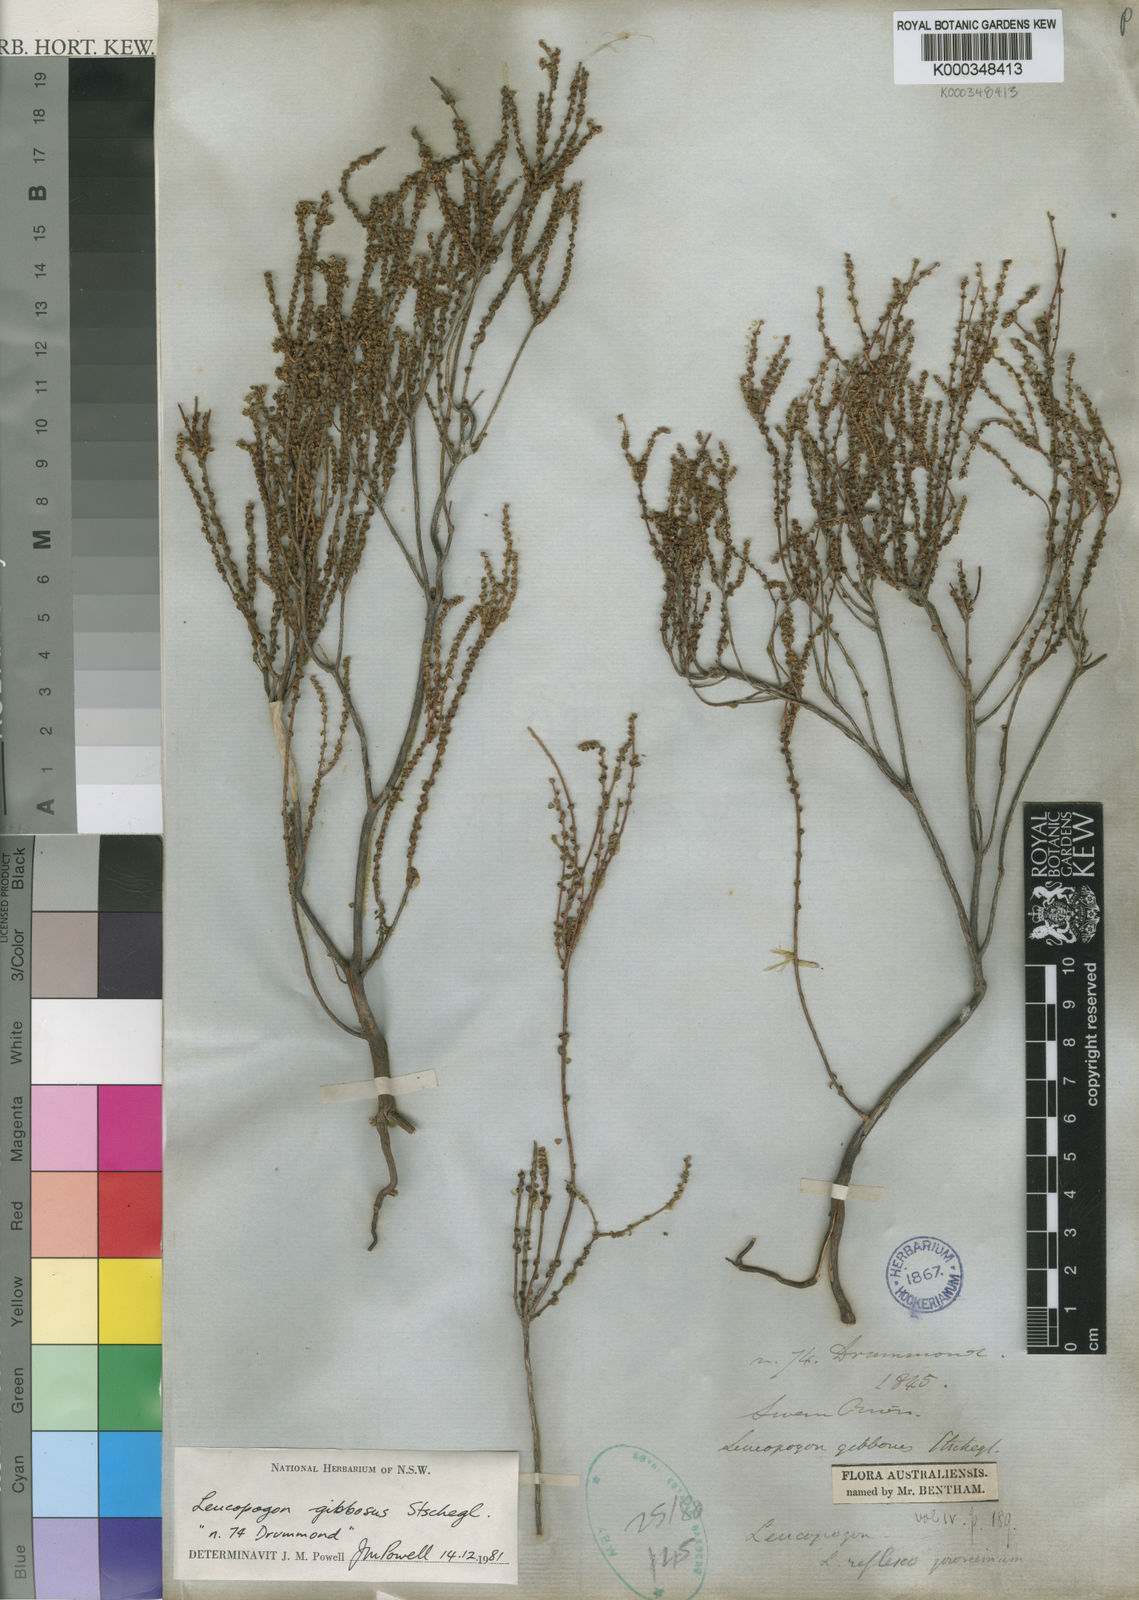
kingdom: Plantae
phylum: Tracheophyta
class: Magnoliopsida
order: Ericales
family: Ericaceae
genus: Leucopogon
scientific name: Leucopogon gibbosus
